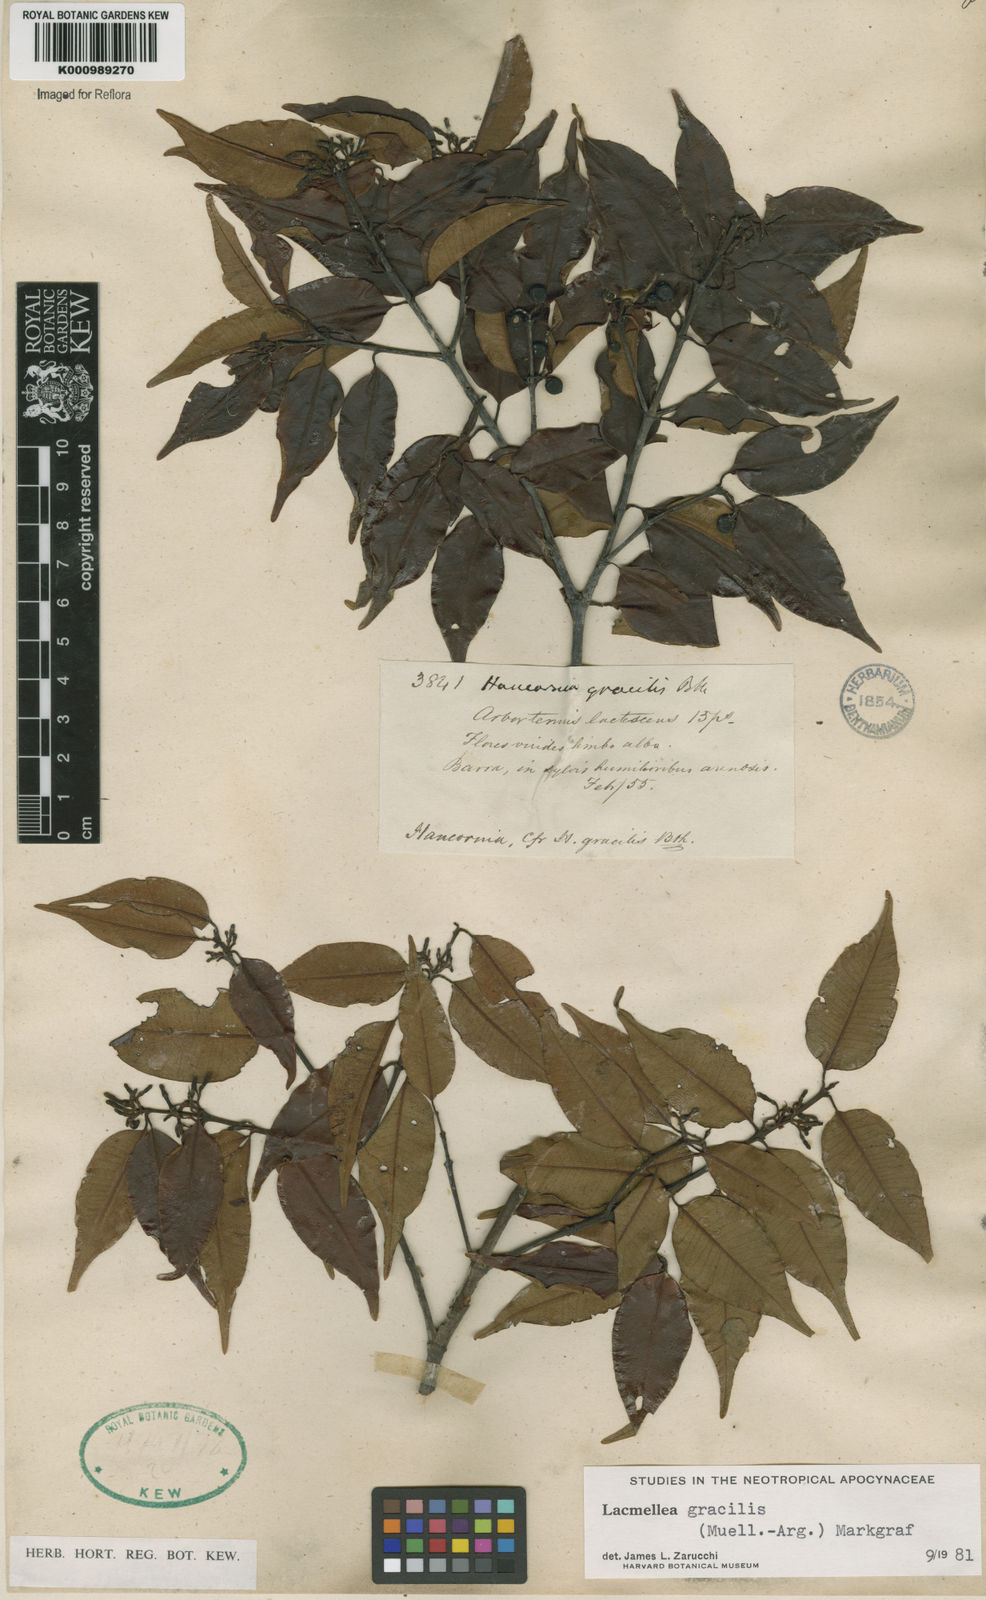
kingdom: Plantae
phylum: Tracheophyta
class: Magnoliopsida
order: Gentianales
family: Apocynaceae
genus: Lacmellea
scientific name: Lacmellea
